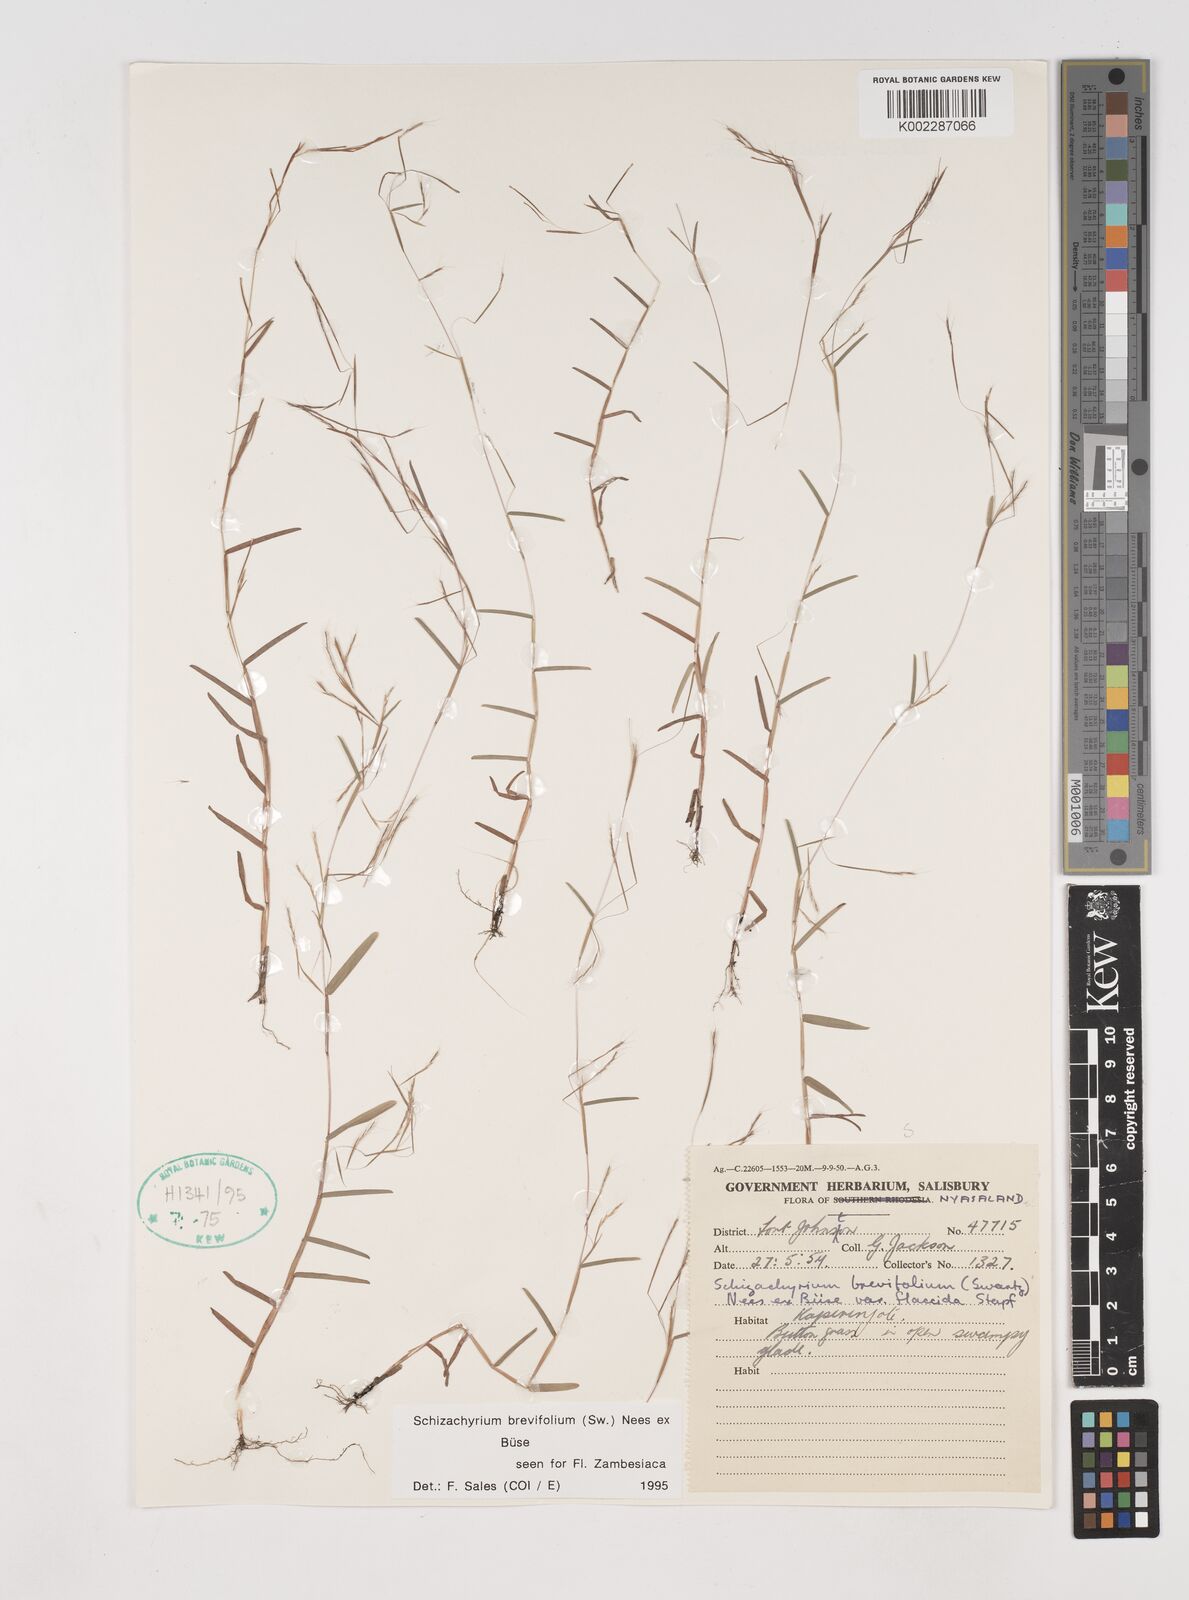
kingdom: Plantae
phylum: Tracheophyta
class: Liliopsida
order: Poales
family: Poaceae
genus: Schizachyrium
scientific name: Schizachyrium brevifolium
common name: Serillo dulce
